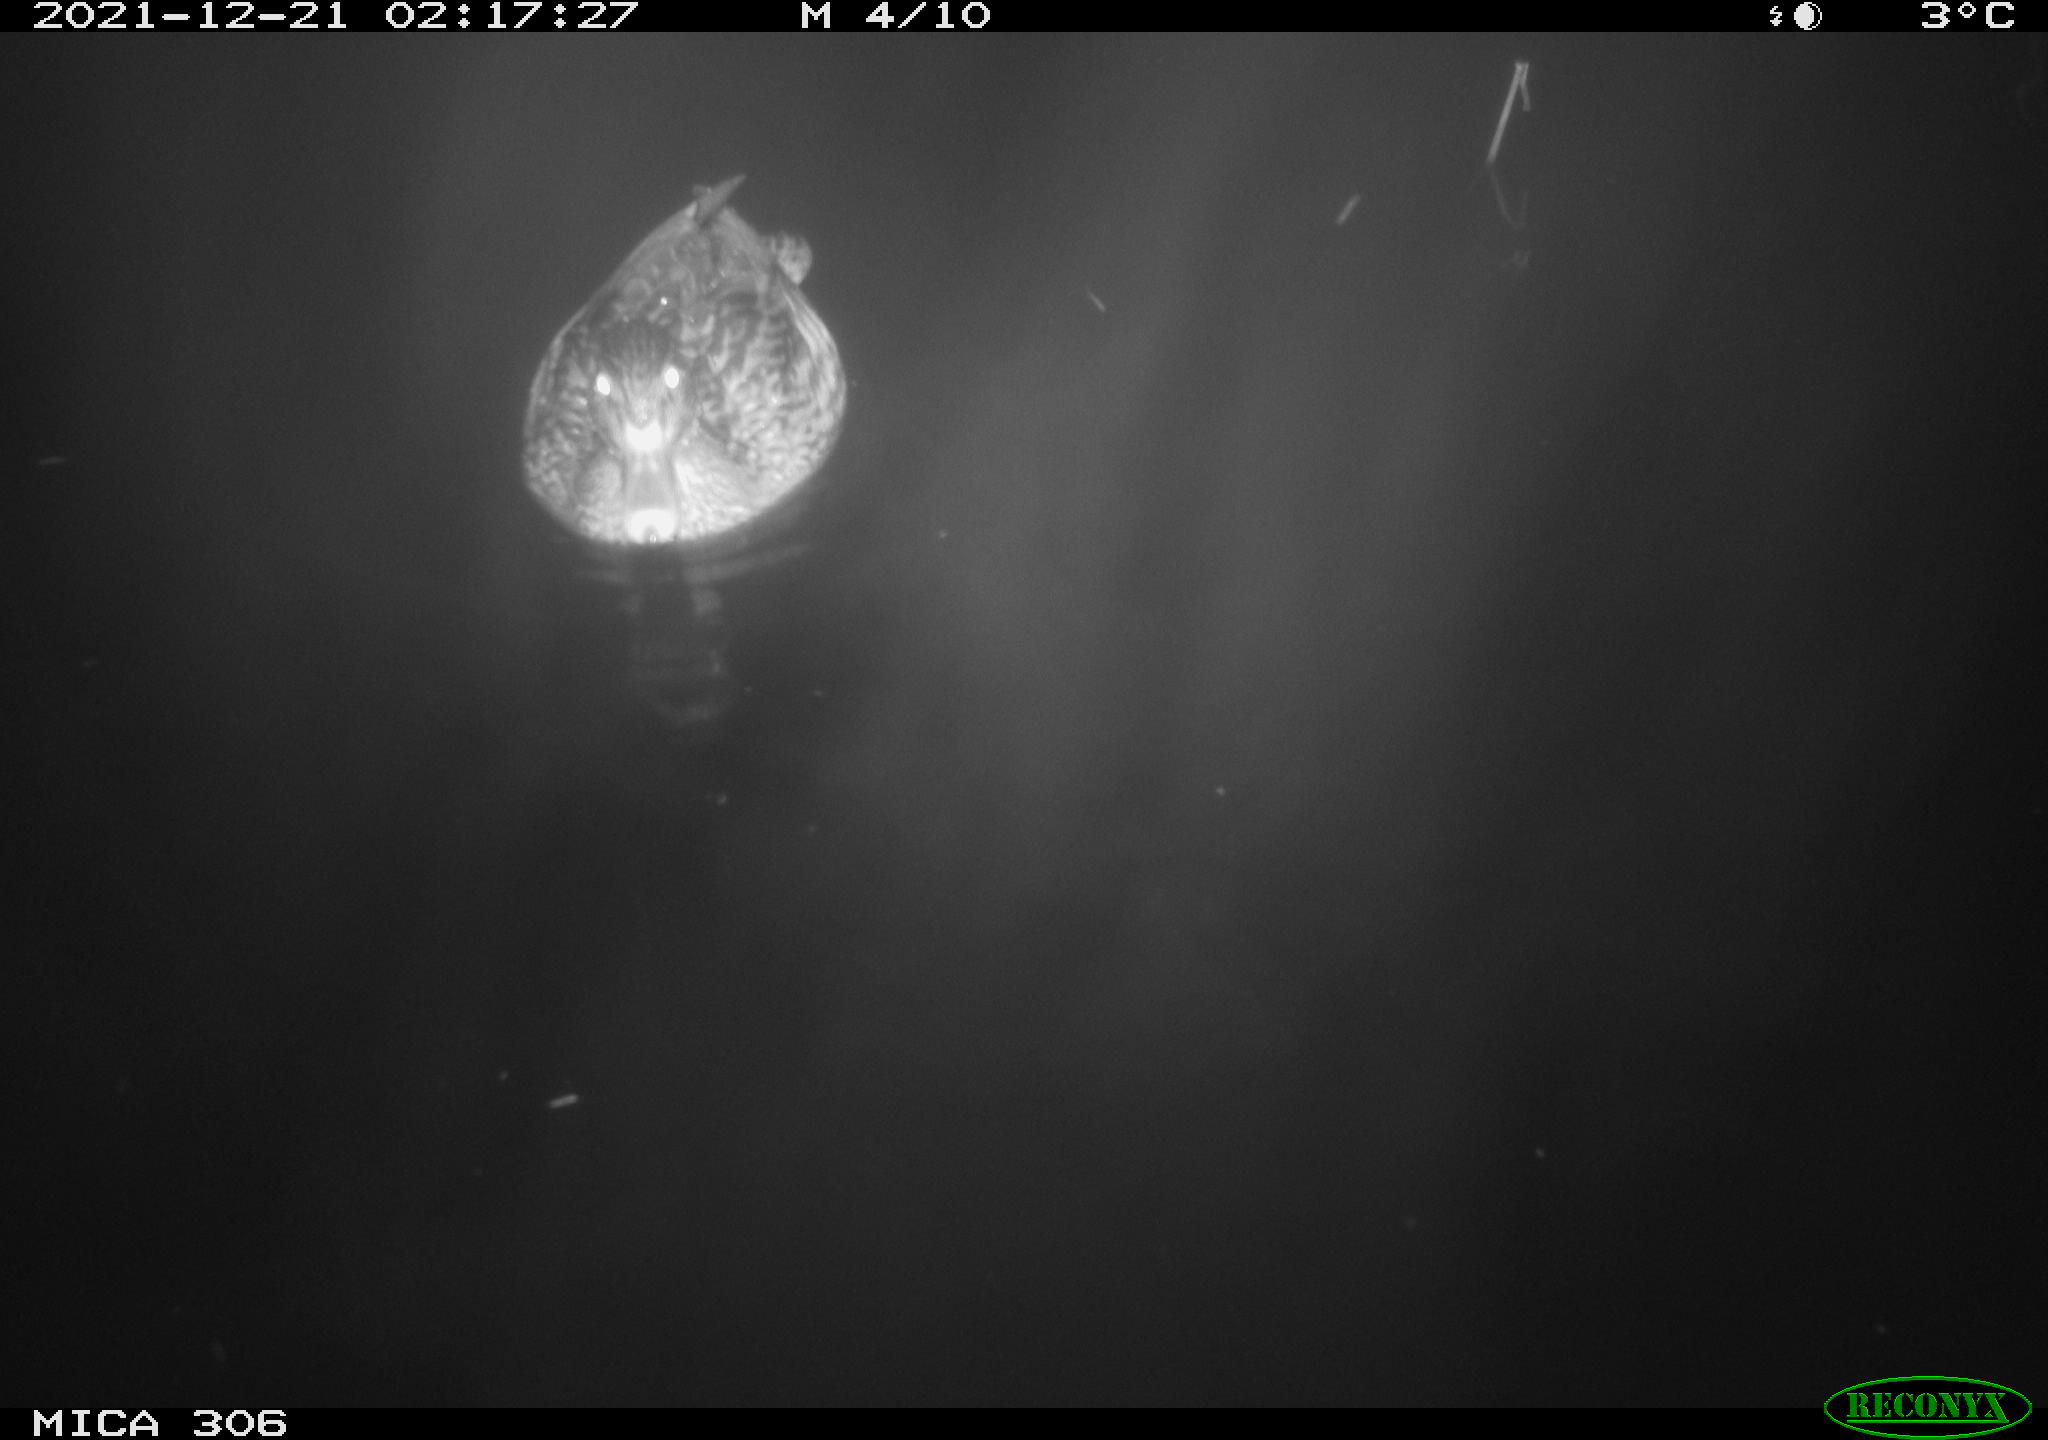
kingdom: Animalia
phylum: Chordata
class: Aves
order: Anseriformes
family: Anatidae
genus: Anas
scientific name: Anas platyrhynchos
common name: Mallard
